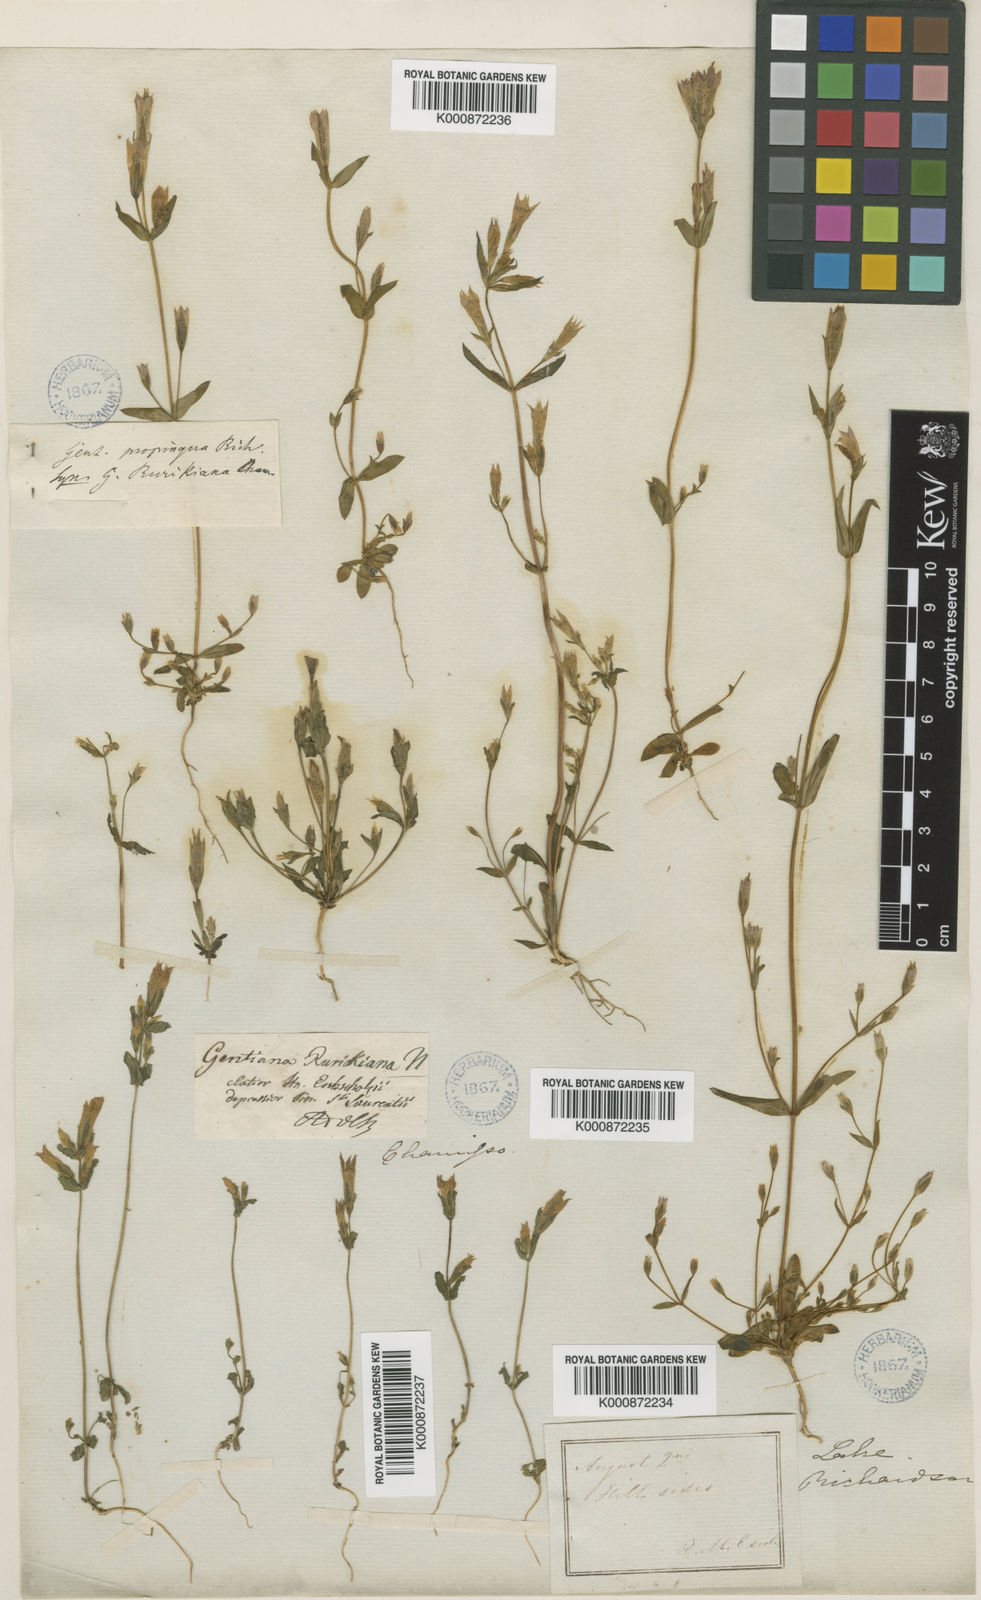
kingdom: Plantae
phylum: Tracheophyta
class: Magnoliopsida
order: Gentianales
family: Gentianaceae
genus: Gentianella
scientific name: Gentianella propinqua
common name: Four-parted dwarf-gentian
